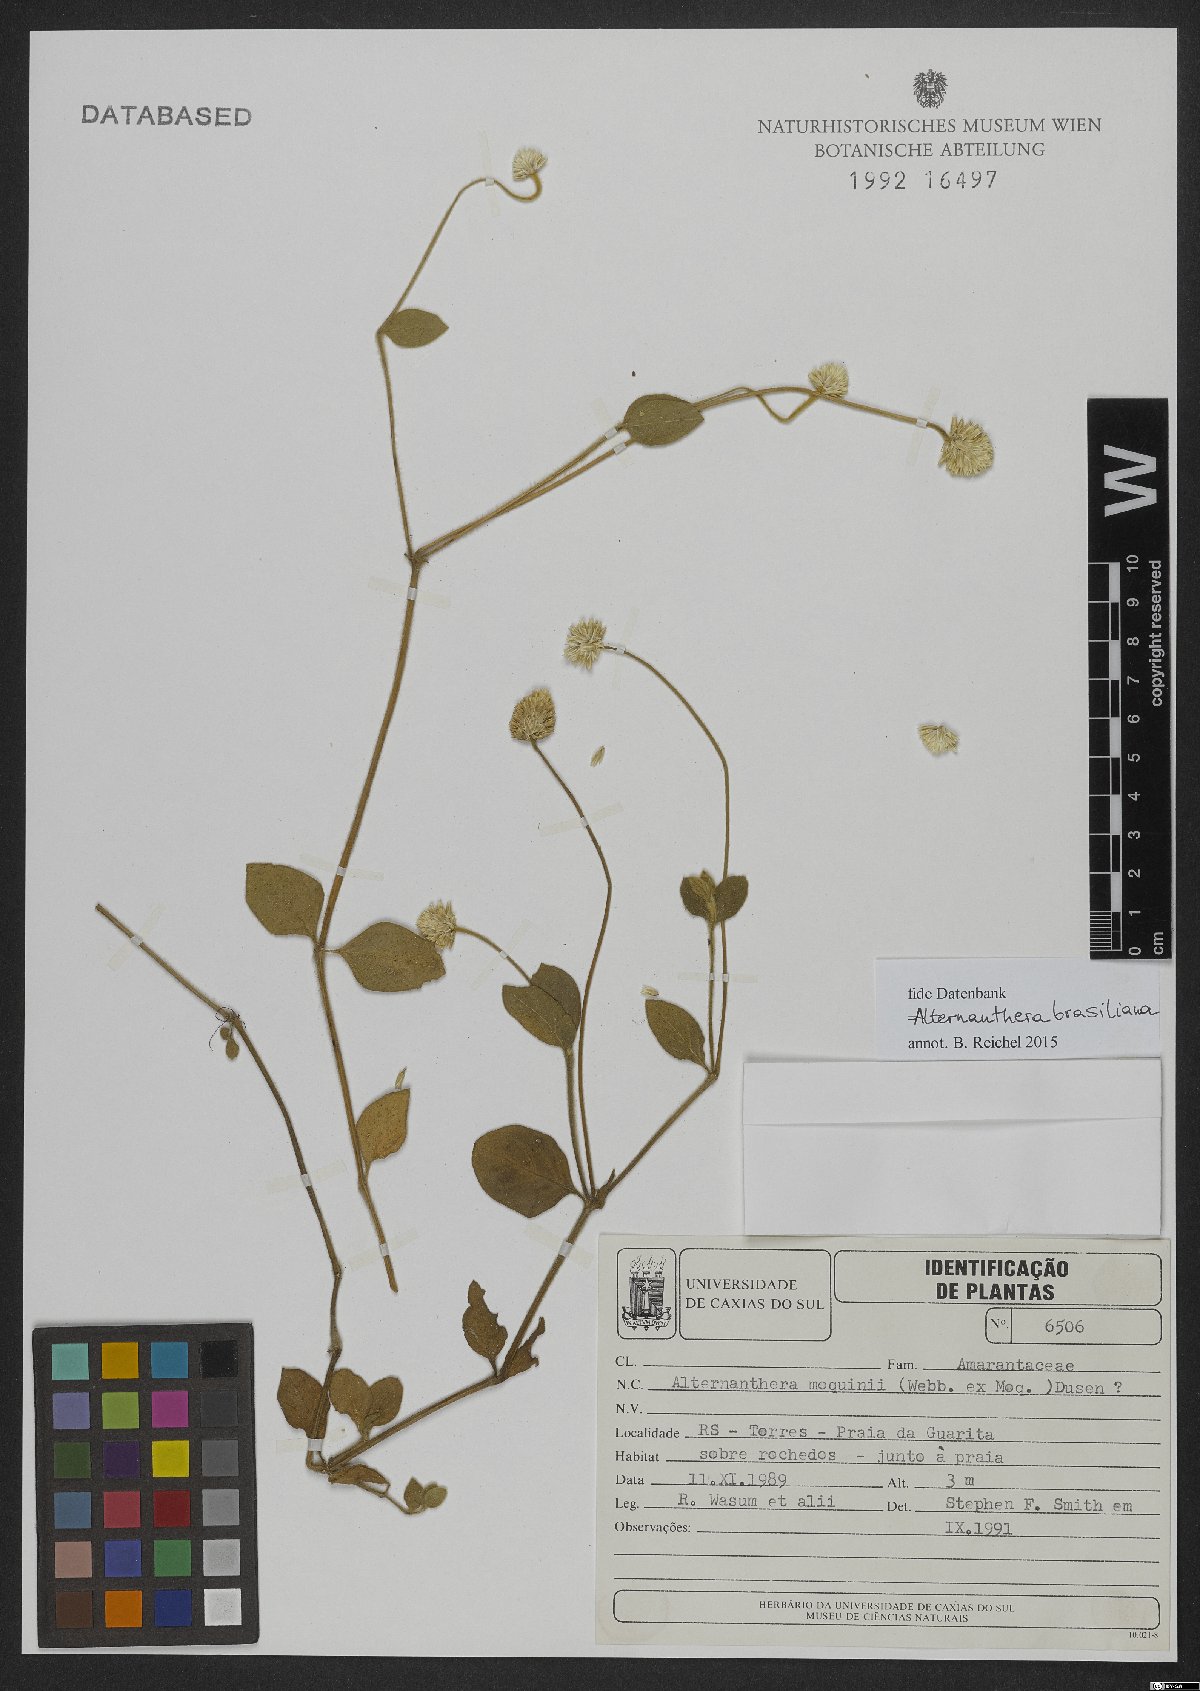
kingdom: Plantae
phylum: Tracheophyta
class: Magnoliopsida
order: Caryophyllales
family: Amaranthaceae
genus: Alternanthera
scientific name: Alternanthera brasiliana
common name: Brazilian joyweed
